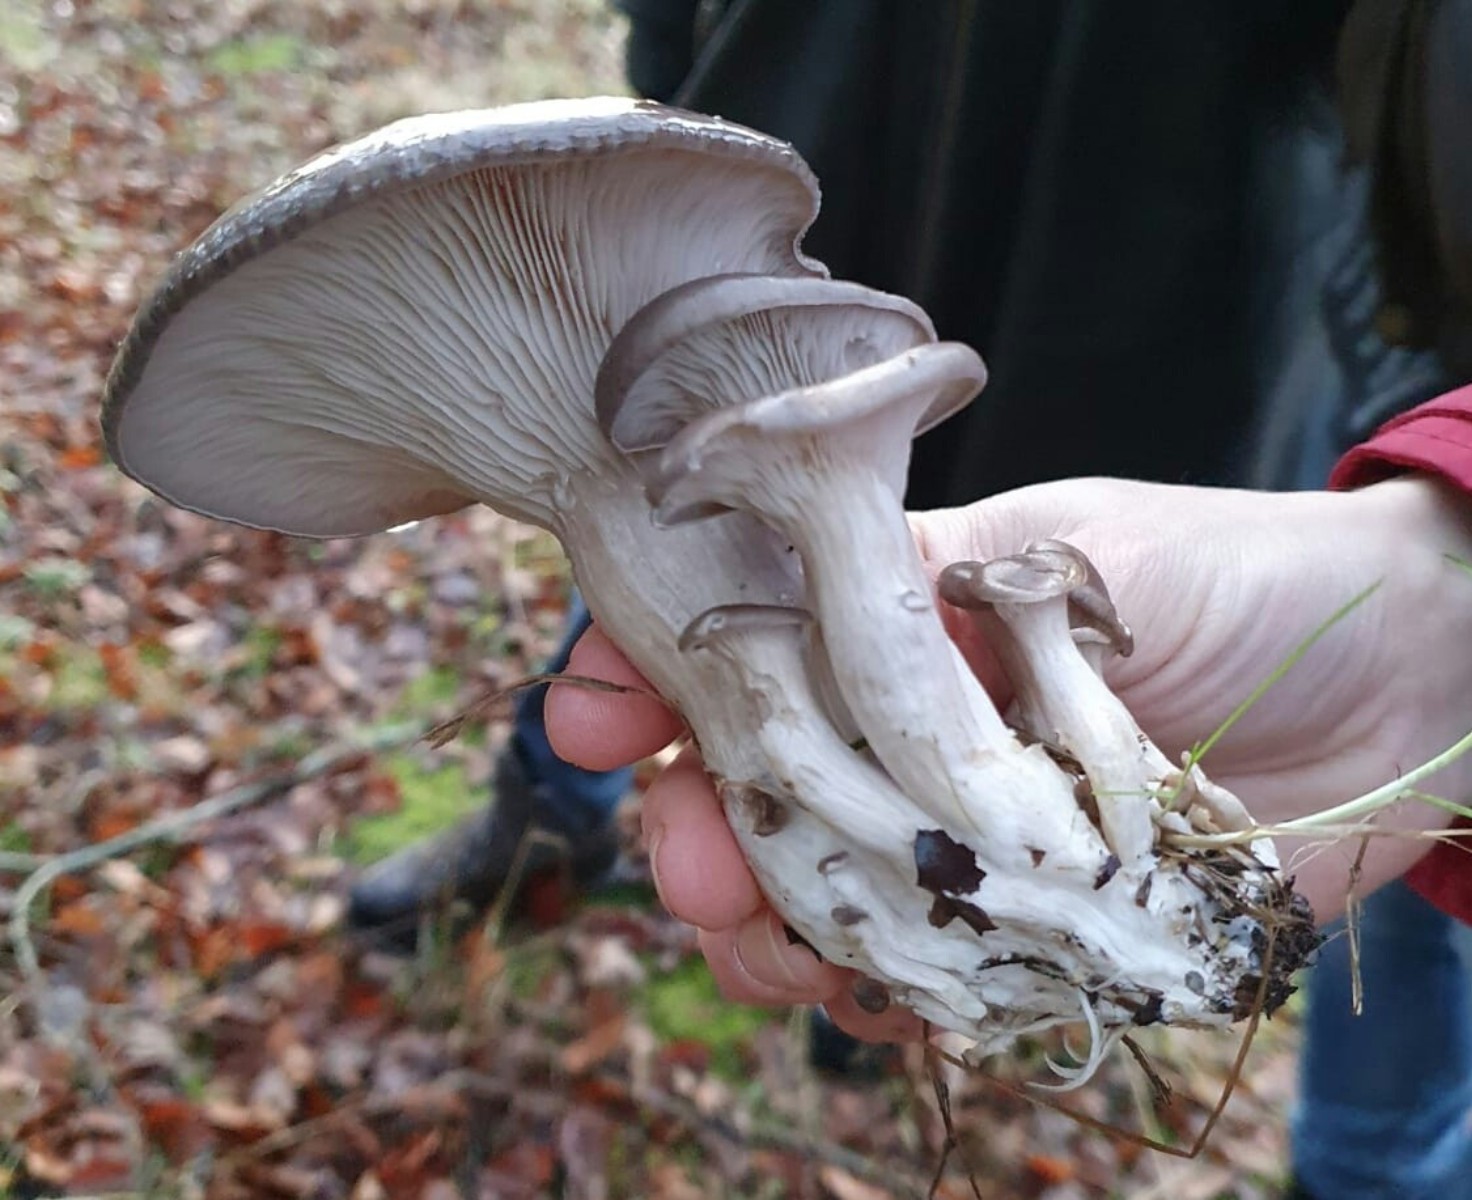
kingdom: Fungi
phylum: Basidiomycota
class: Agaricomycetes
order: Agaricales
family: Pleurotaceae
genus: Pleurotus
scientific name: Pleurotus ostreatus
